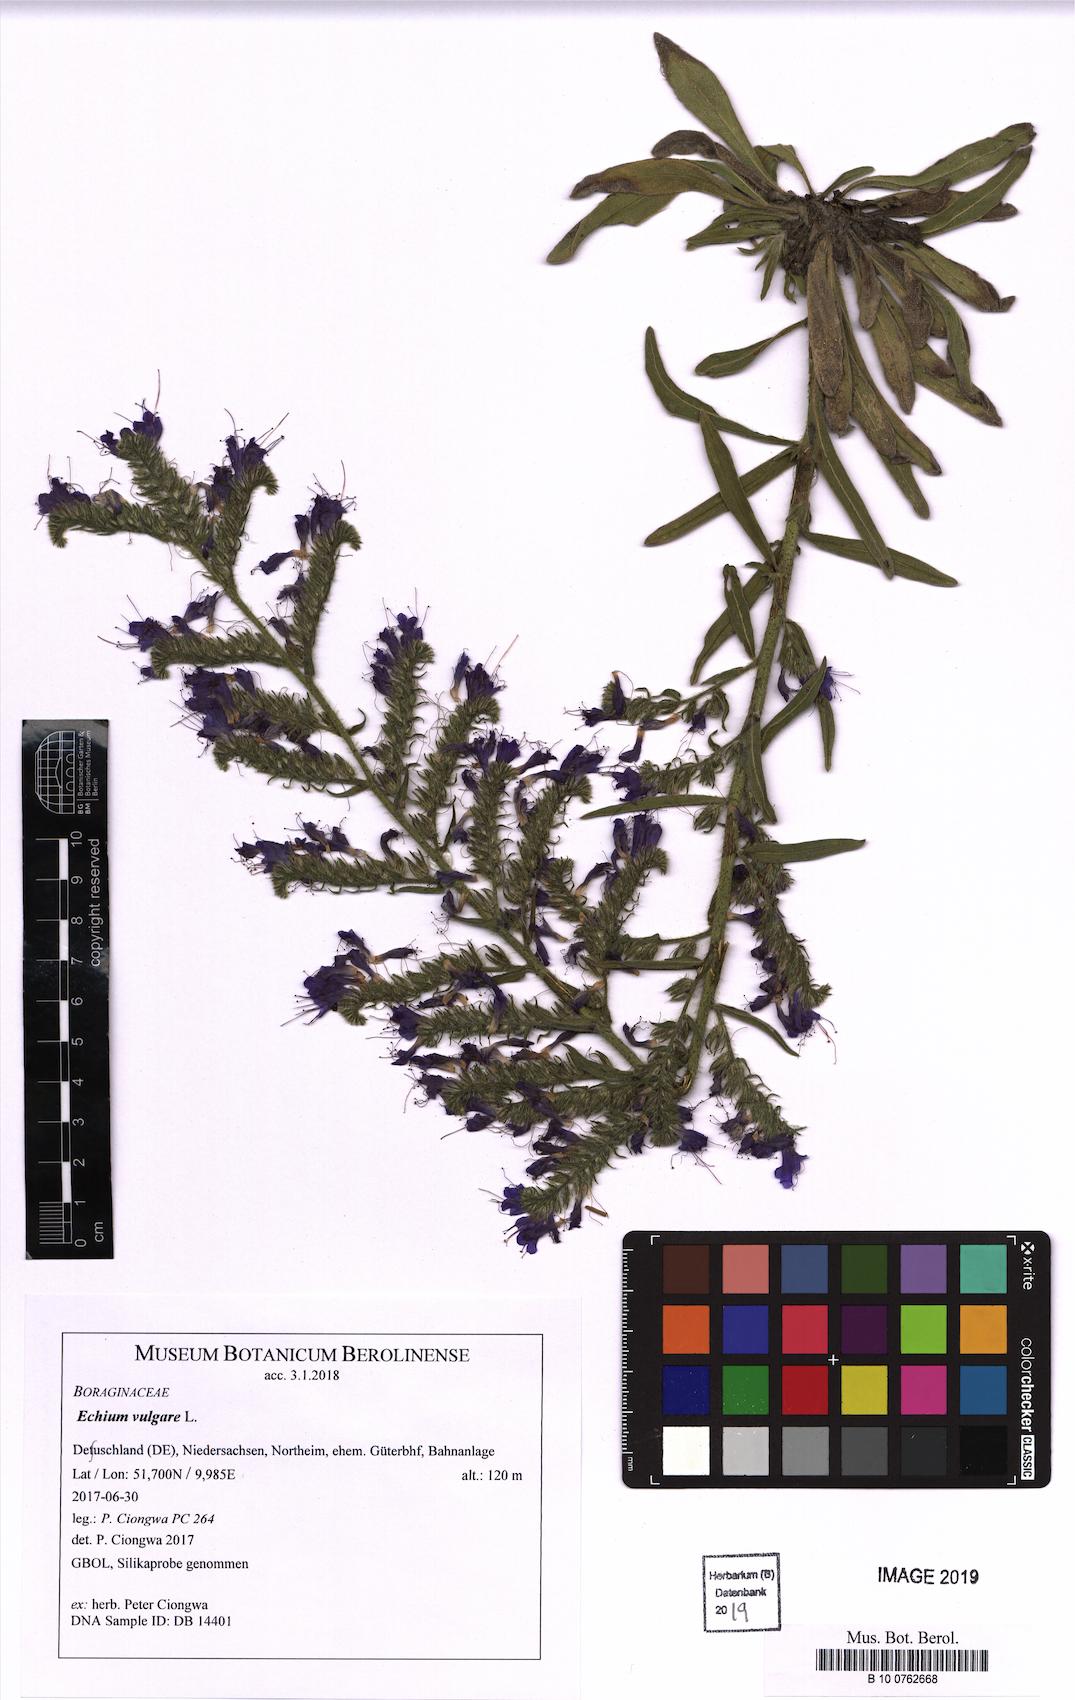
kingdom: Plantae
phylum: Tracheophyta
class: Magnoliopsida
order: Boraginales
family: Boraginaceae
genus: Echium
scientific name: Echium vulgare
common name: Common viper's bugloss
